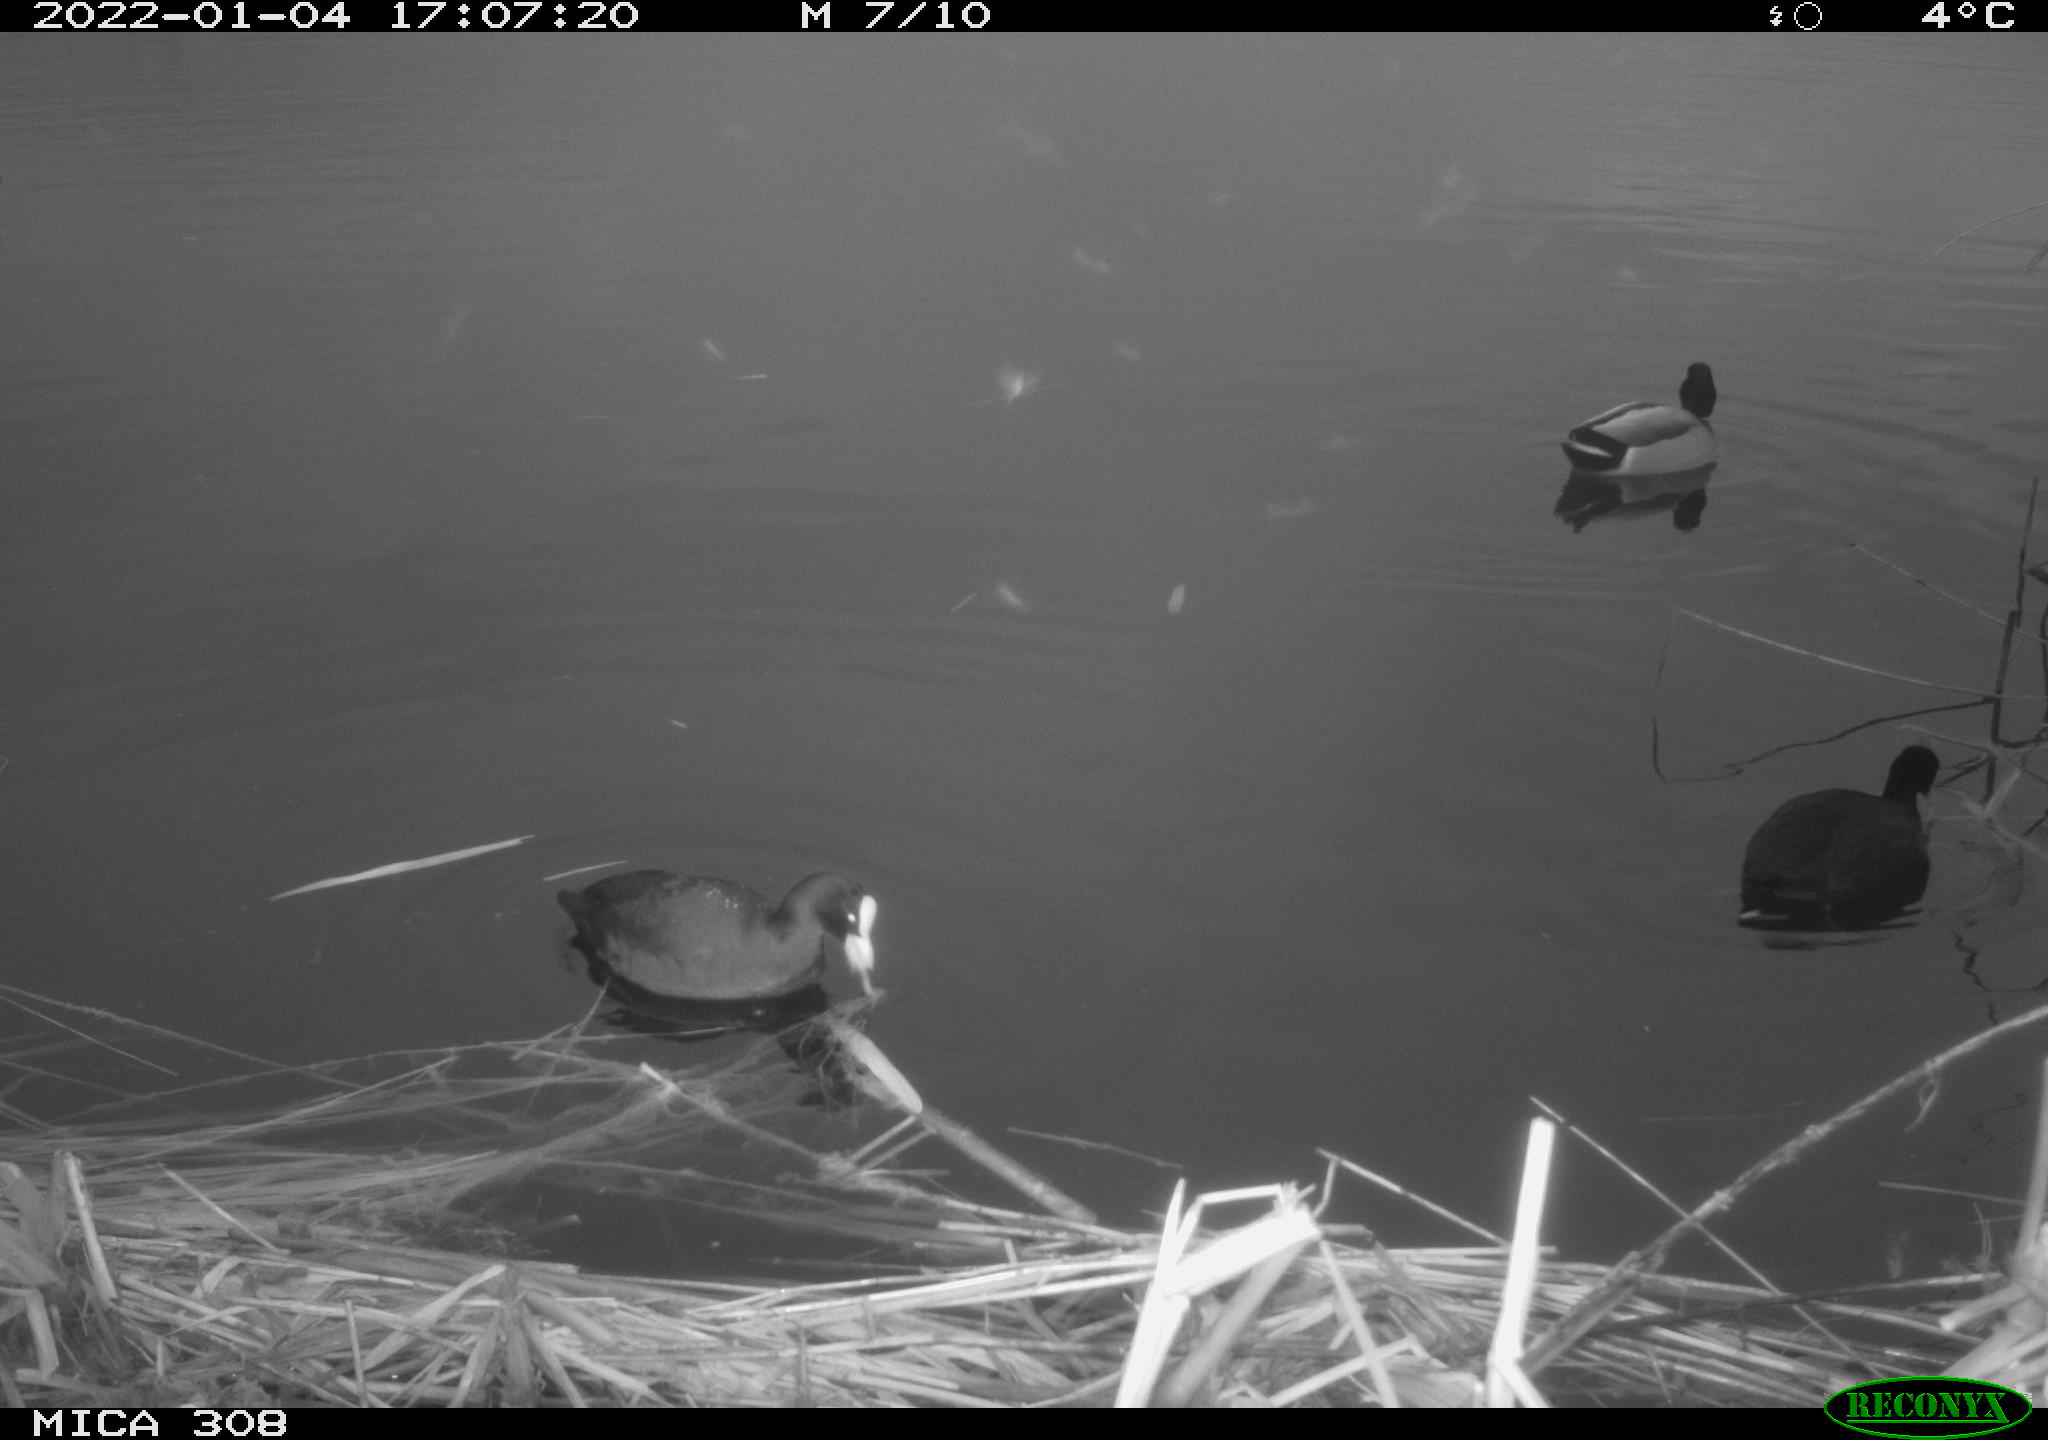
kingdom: Animalia
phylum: Chordata
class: Aves
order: Anseriformes
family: Anatidae
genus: Anas
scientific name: Anas platyrhynchos
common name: Mallard
